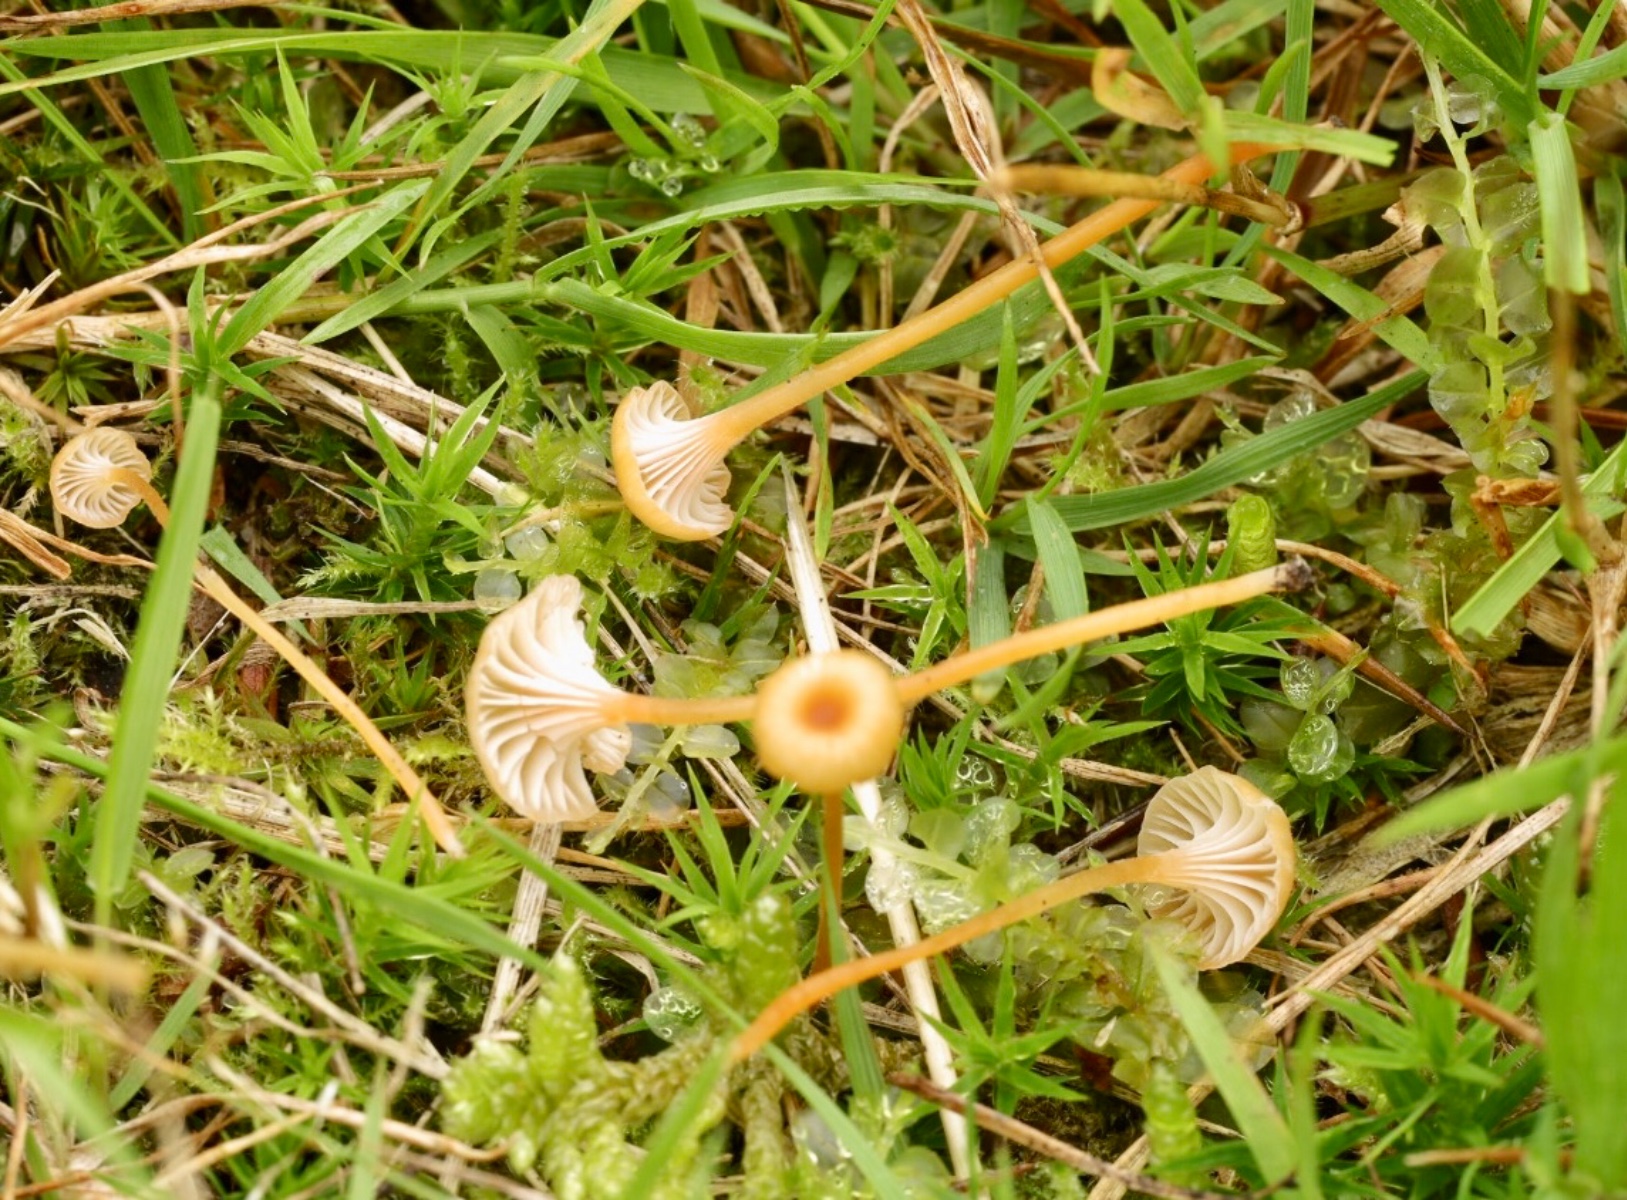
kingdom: Fungi
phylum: Basidiomycota
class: Agaricomycetes
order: Hymenochaetales
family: Rickenellaceae
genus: Rickenella
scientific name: Rickenella fibula
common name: orange mosnavlehat
